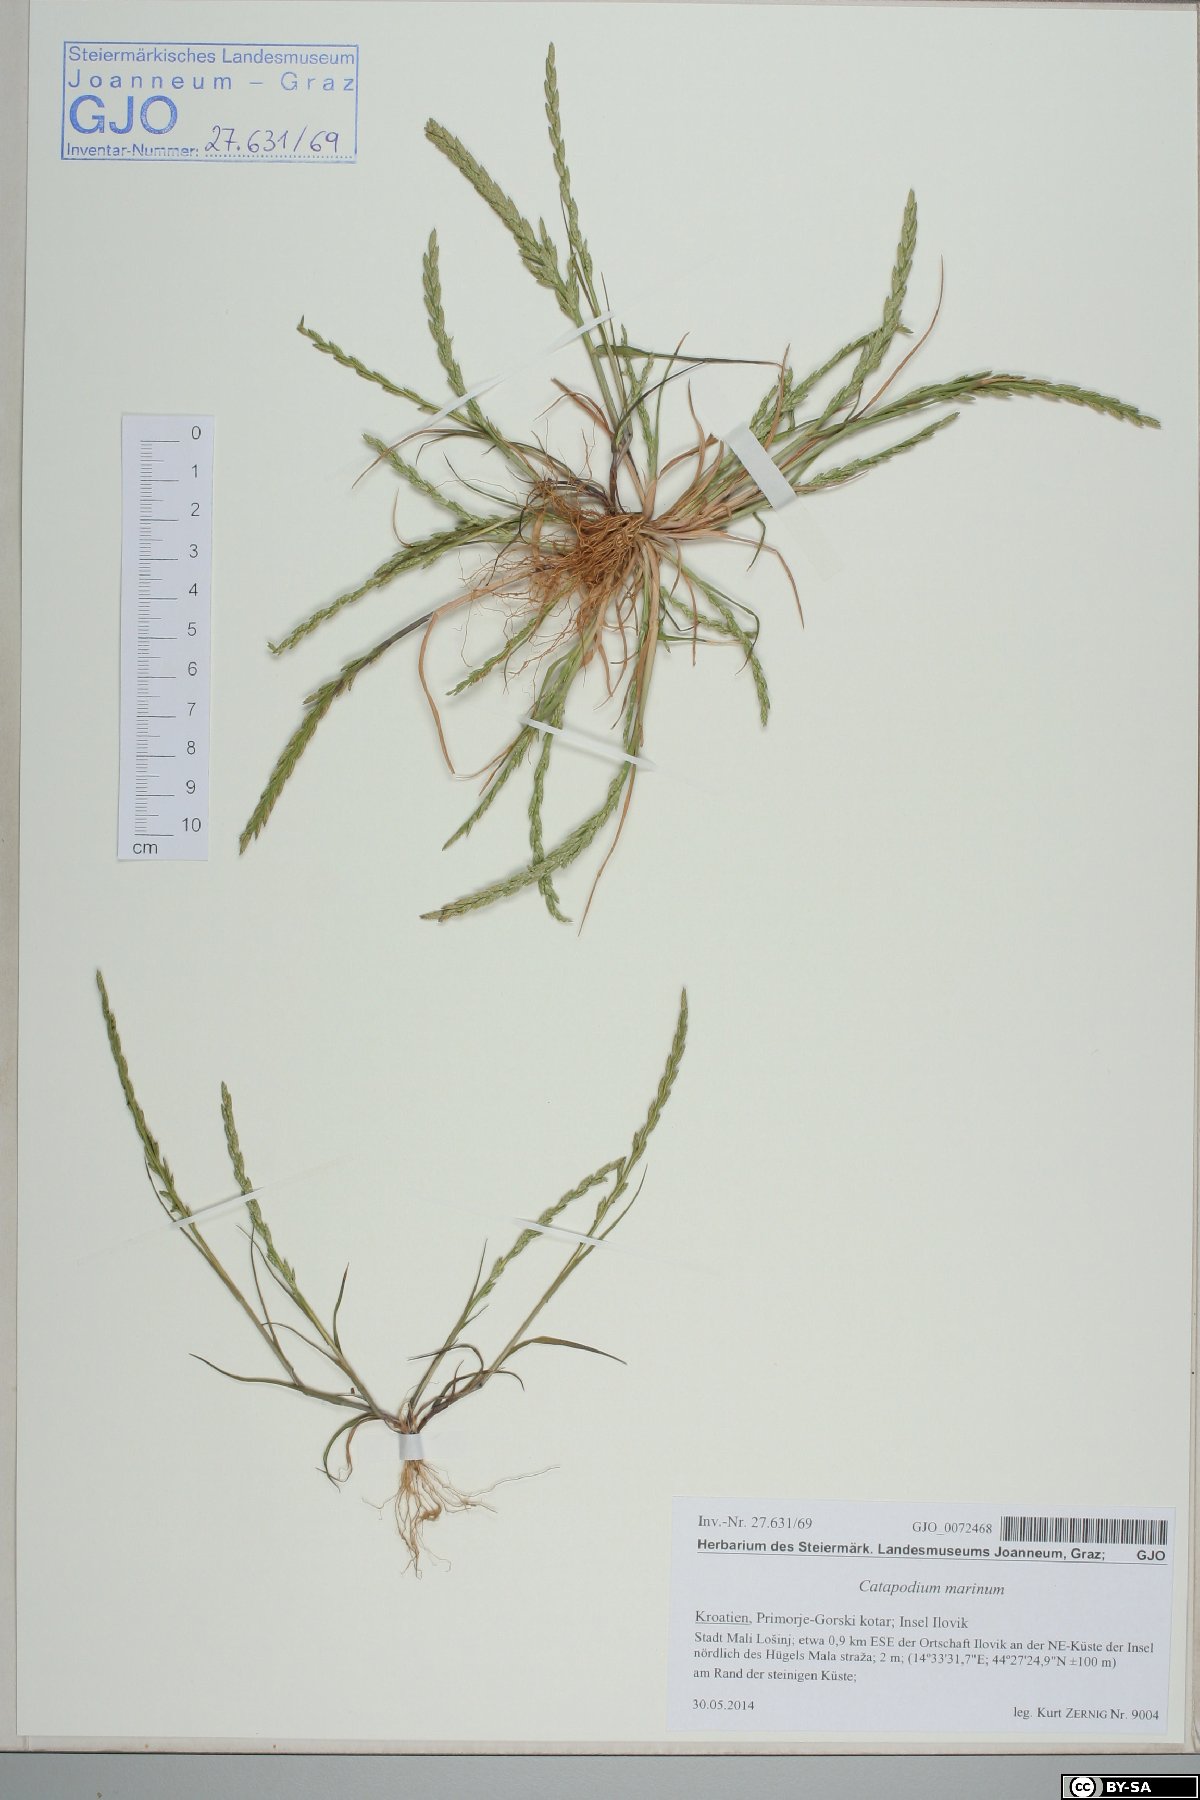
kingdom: Plantae
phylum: Tracheophyta
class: Liliopsida
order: Poales
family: Poaceae
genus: Catapodium
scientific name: Catapodium marinum
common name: Sea fern-grass
